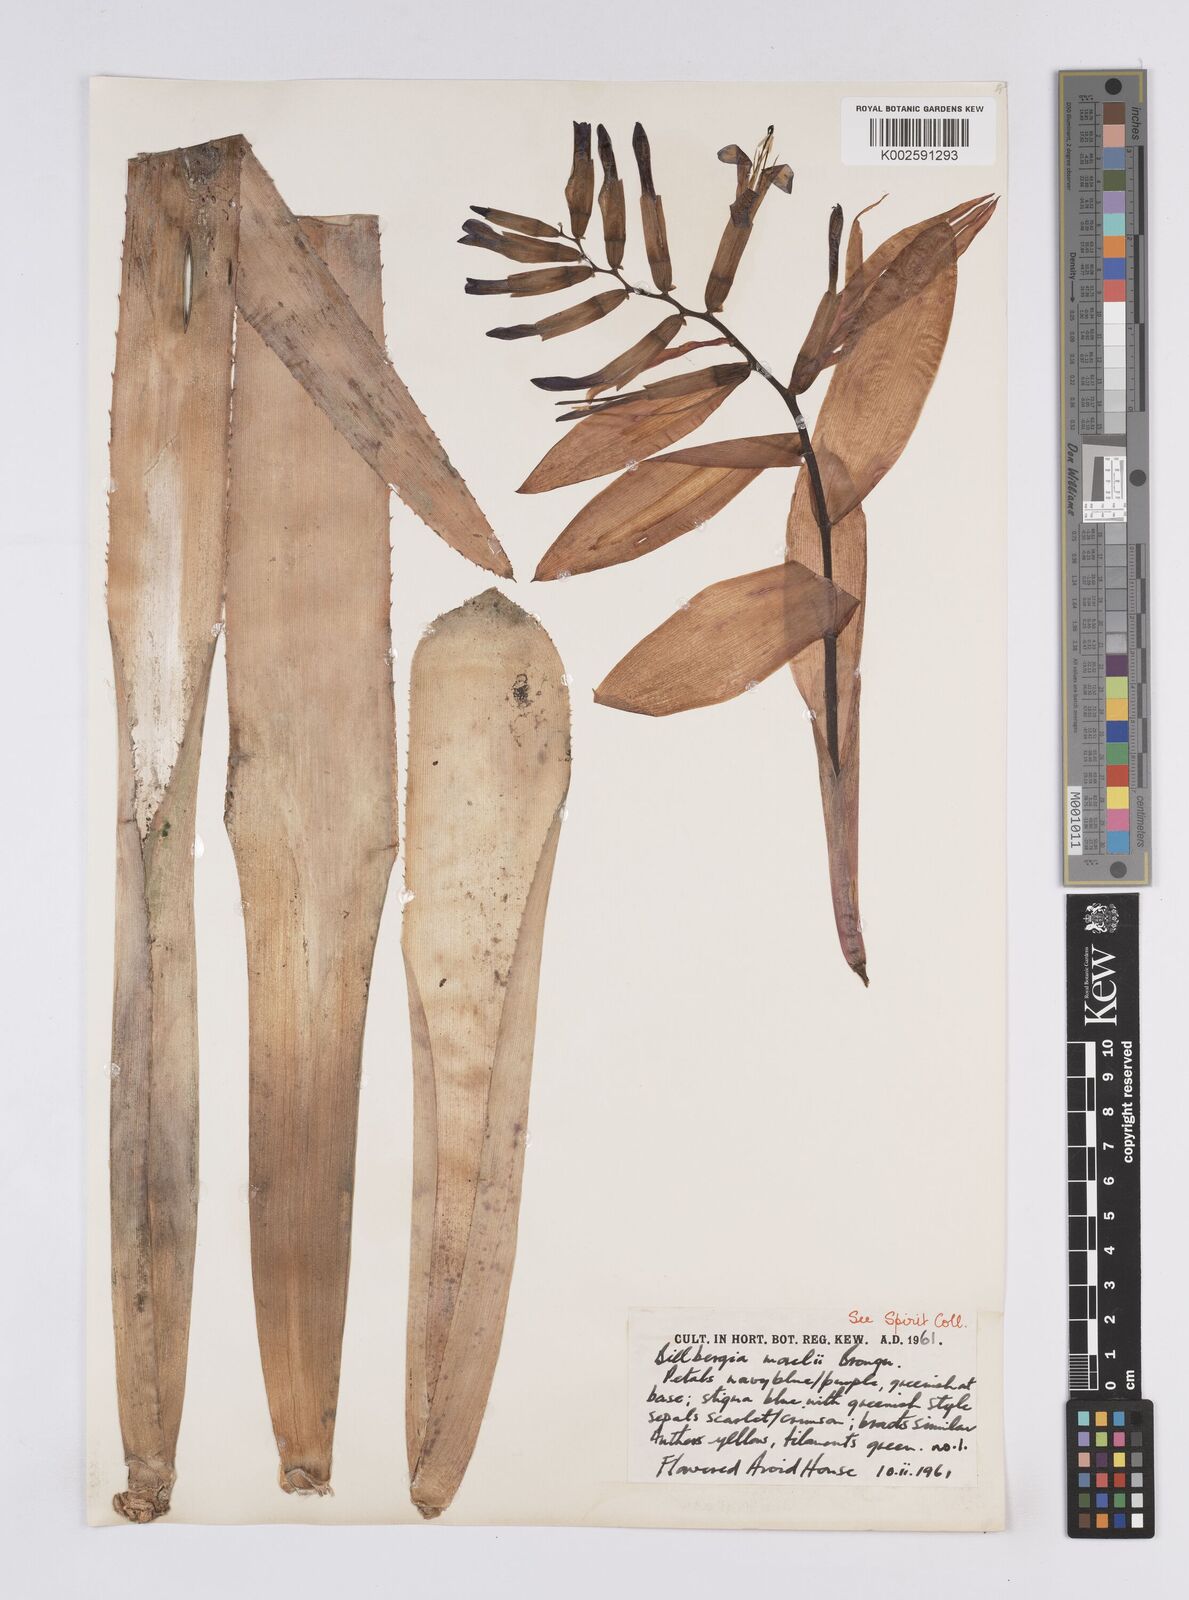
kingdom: Plantae
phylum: Tracheophyta
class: Liliopsida
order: Poales
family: Bromeliaceae
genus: Billbergia
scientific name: Billbergia morelii
